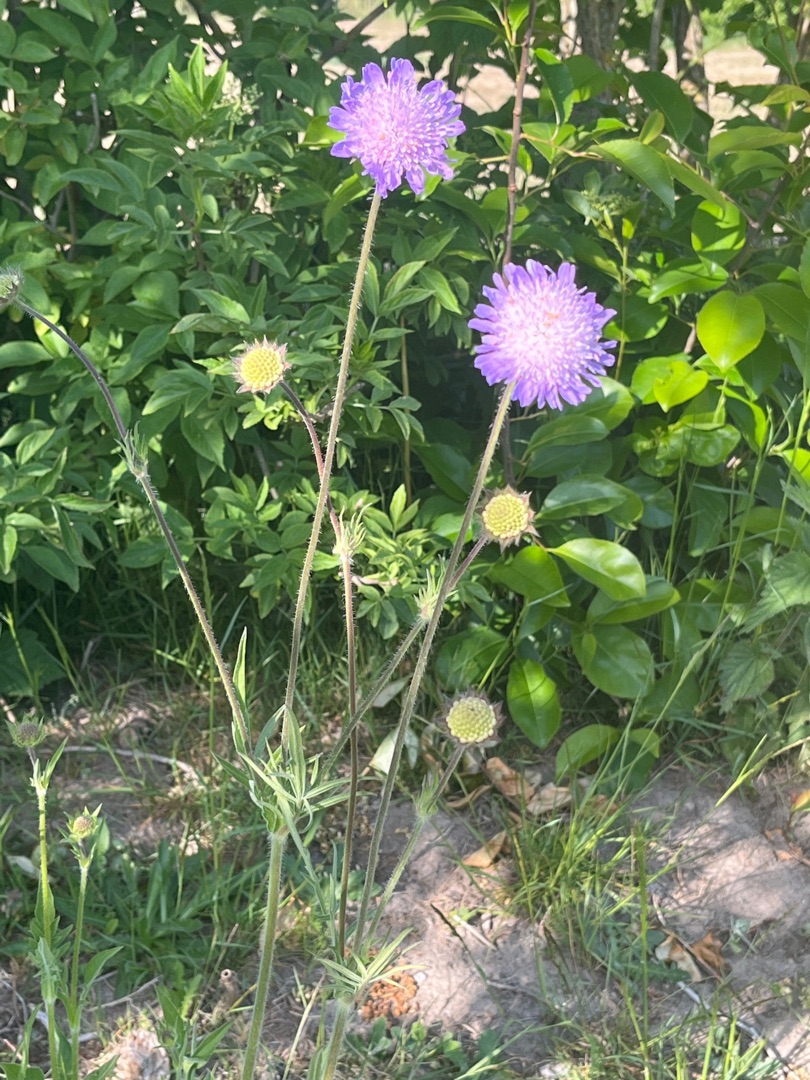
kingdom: Plantae
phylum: Tracheophyta
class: Magnoliopsida
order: Dipsacales
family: Caprifoliaceae
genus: Knautia
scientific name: Knautia arvensis
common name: Blåhat
